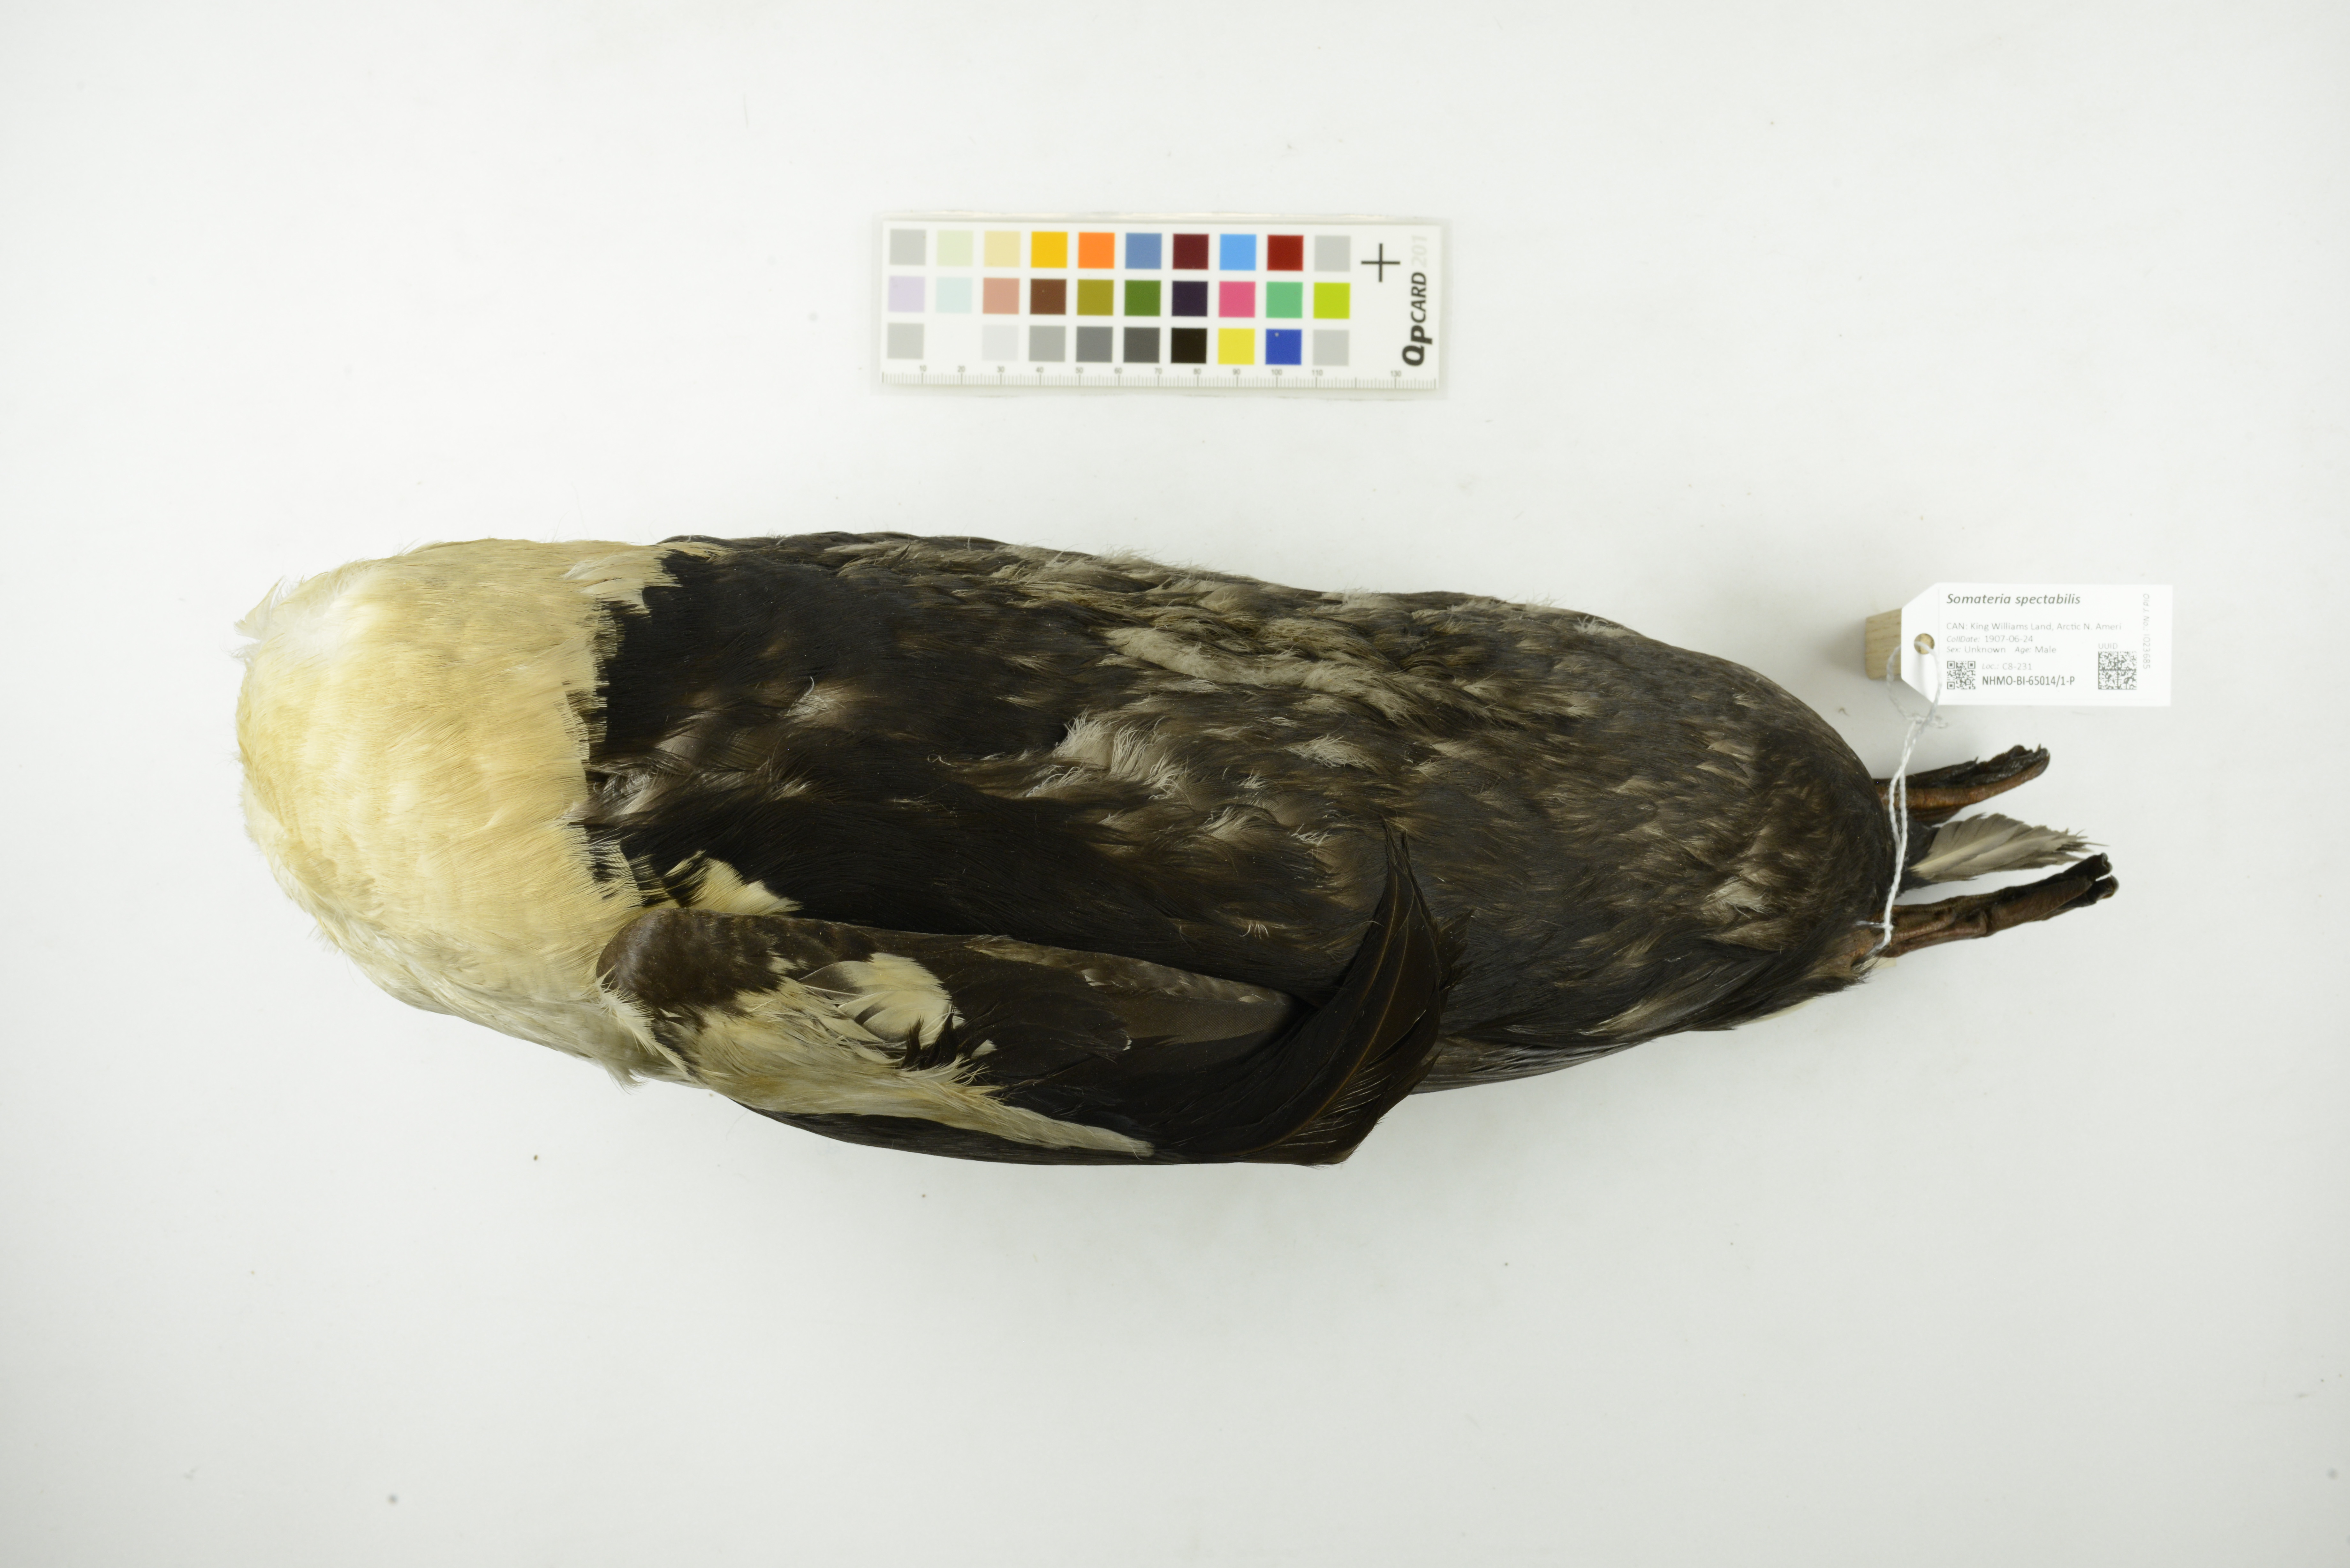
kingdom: Animalia
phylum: Chordata
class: Aves
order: Anseriformes
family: Anatidae
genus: Somateria
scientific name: Somateria spectabilis
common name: King eider
